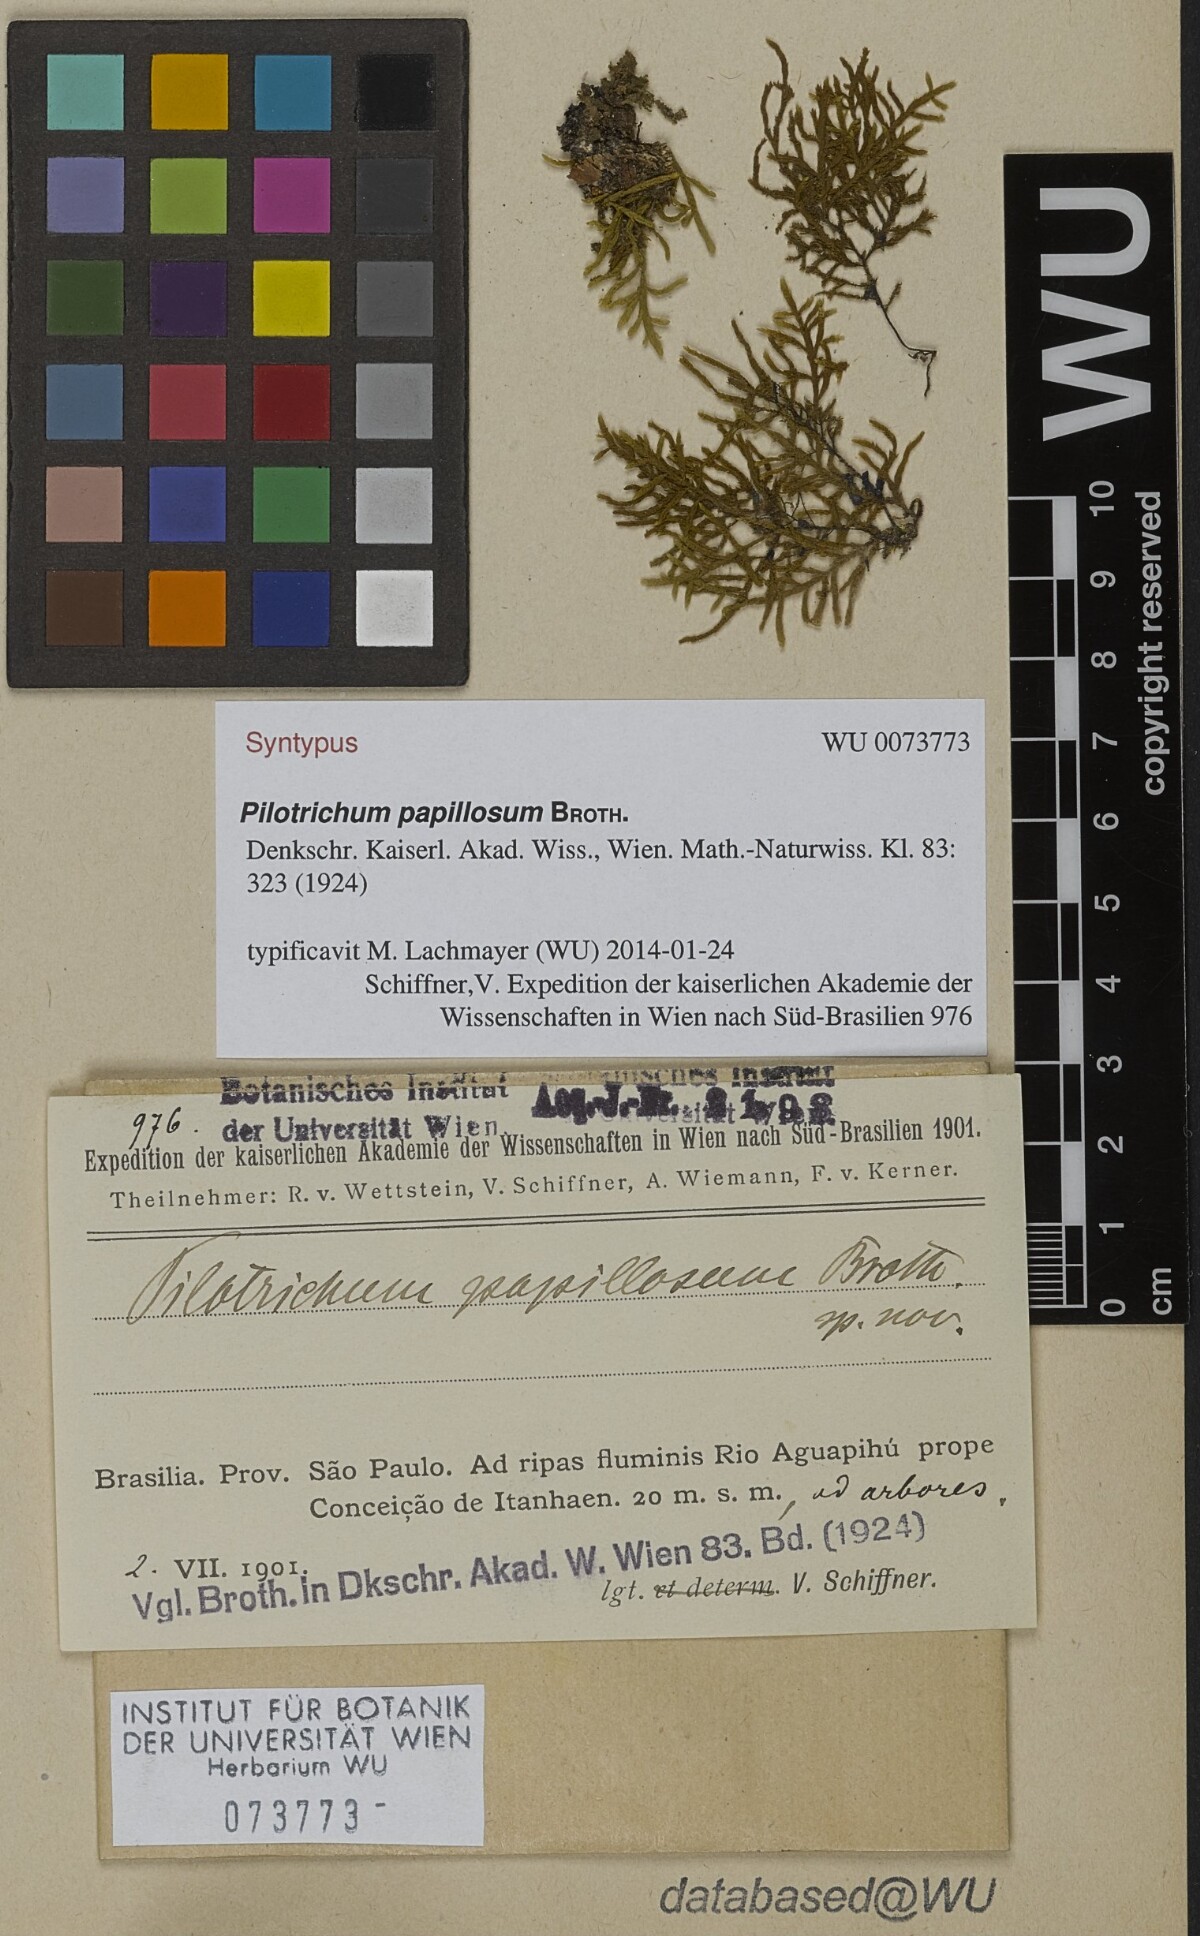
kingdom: Plantae
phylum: Bryophyta
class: Bryopsida
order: Hookeriales
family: Pilotrichaceae
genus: Pilotrichum
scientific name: Pilotrichum evanescens
